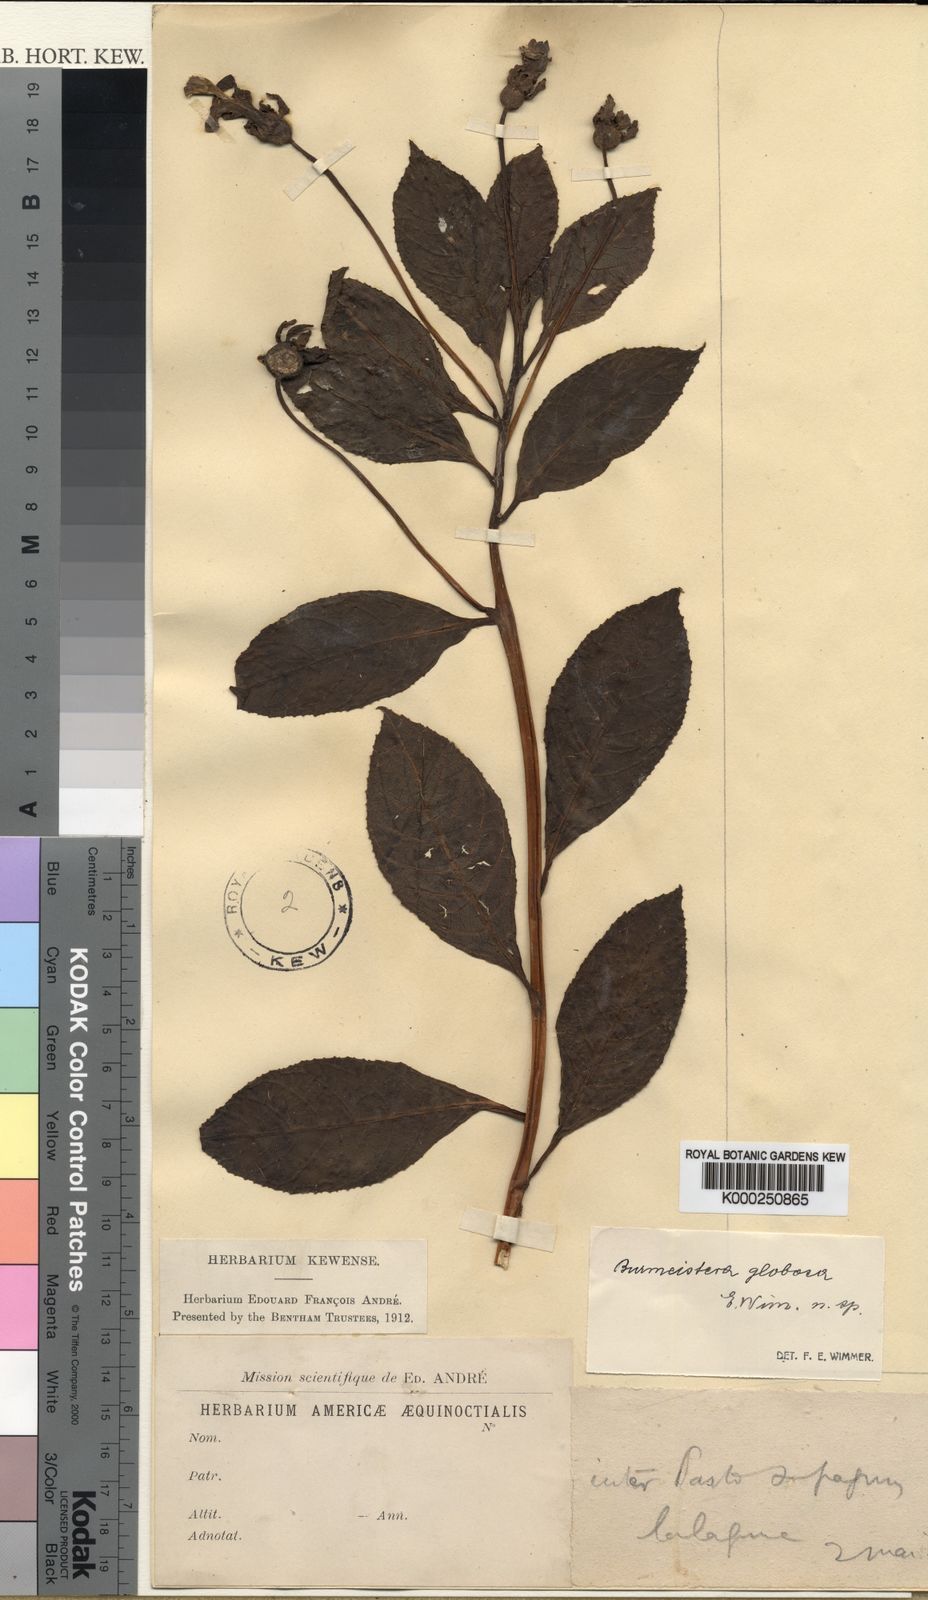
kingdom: Plantae
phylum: Tracheophyta
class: Magnoliopsida
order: Asterales
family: Campanulaceae
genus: Burmeistera
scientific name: Burmeistera globosa
